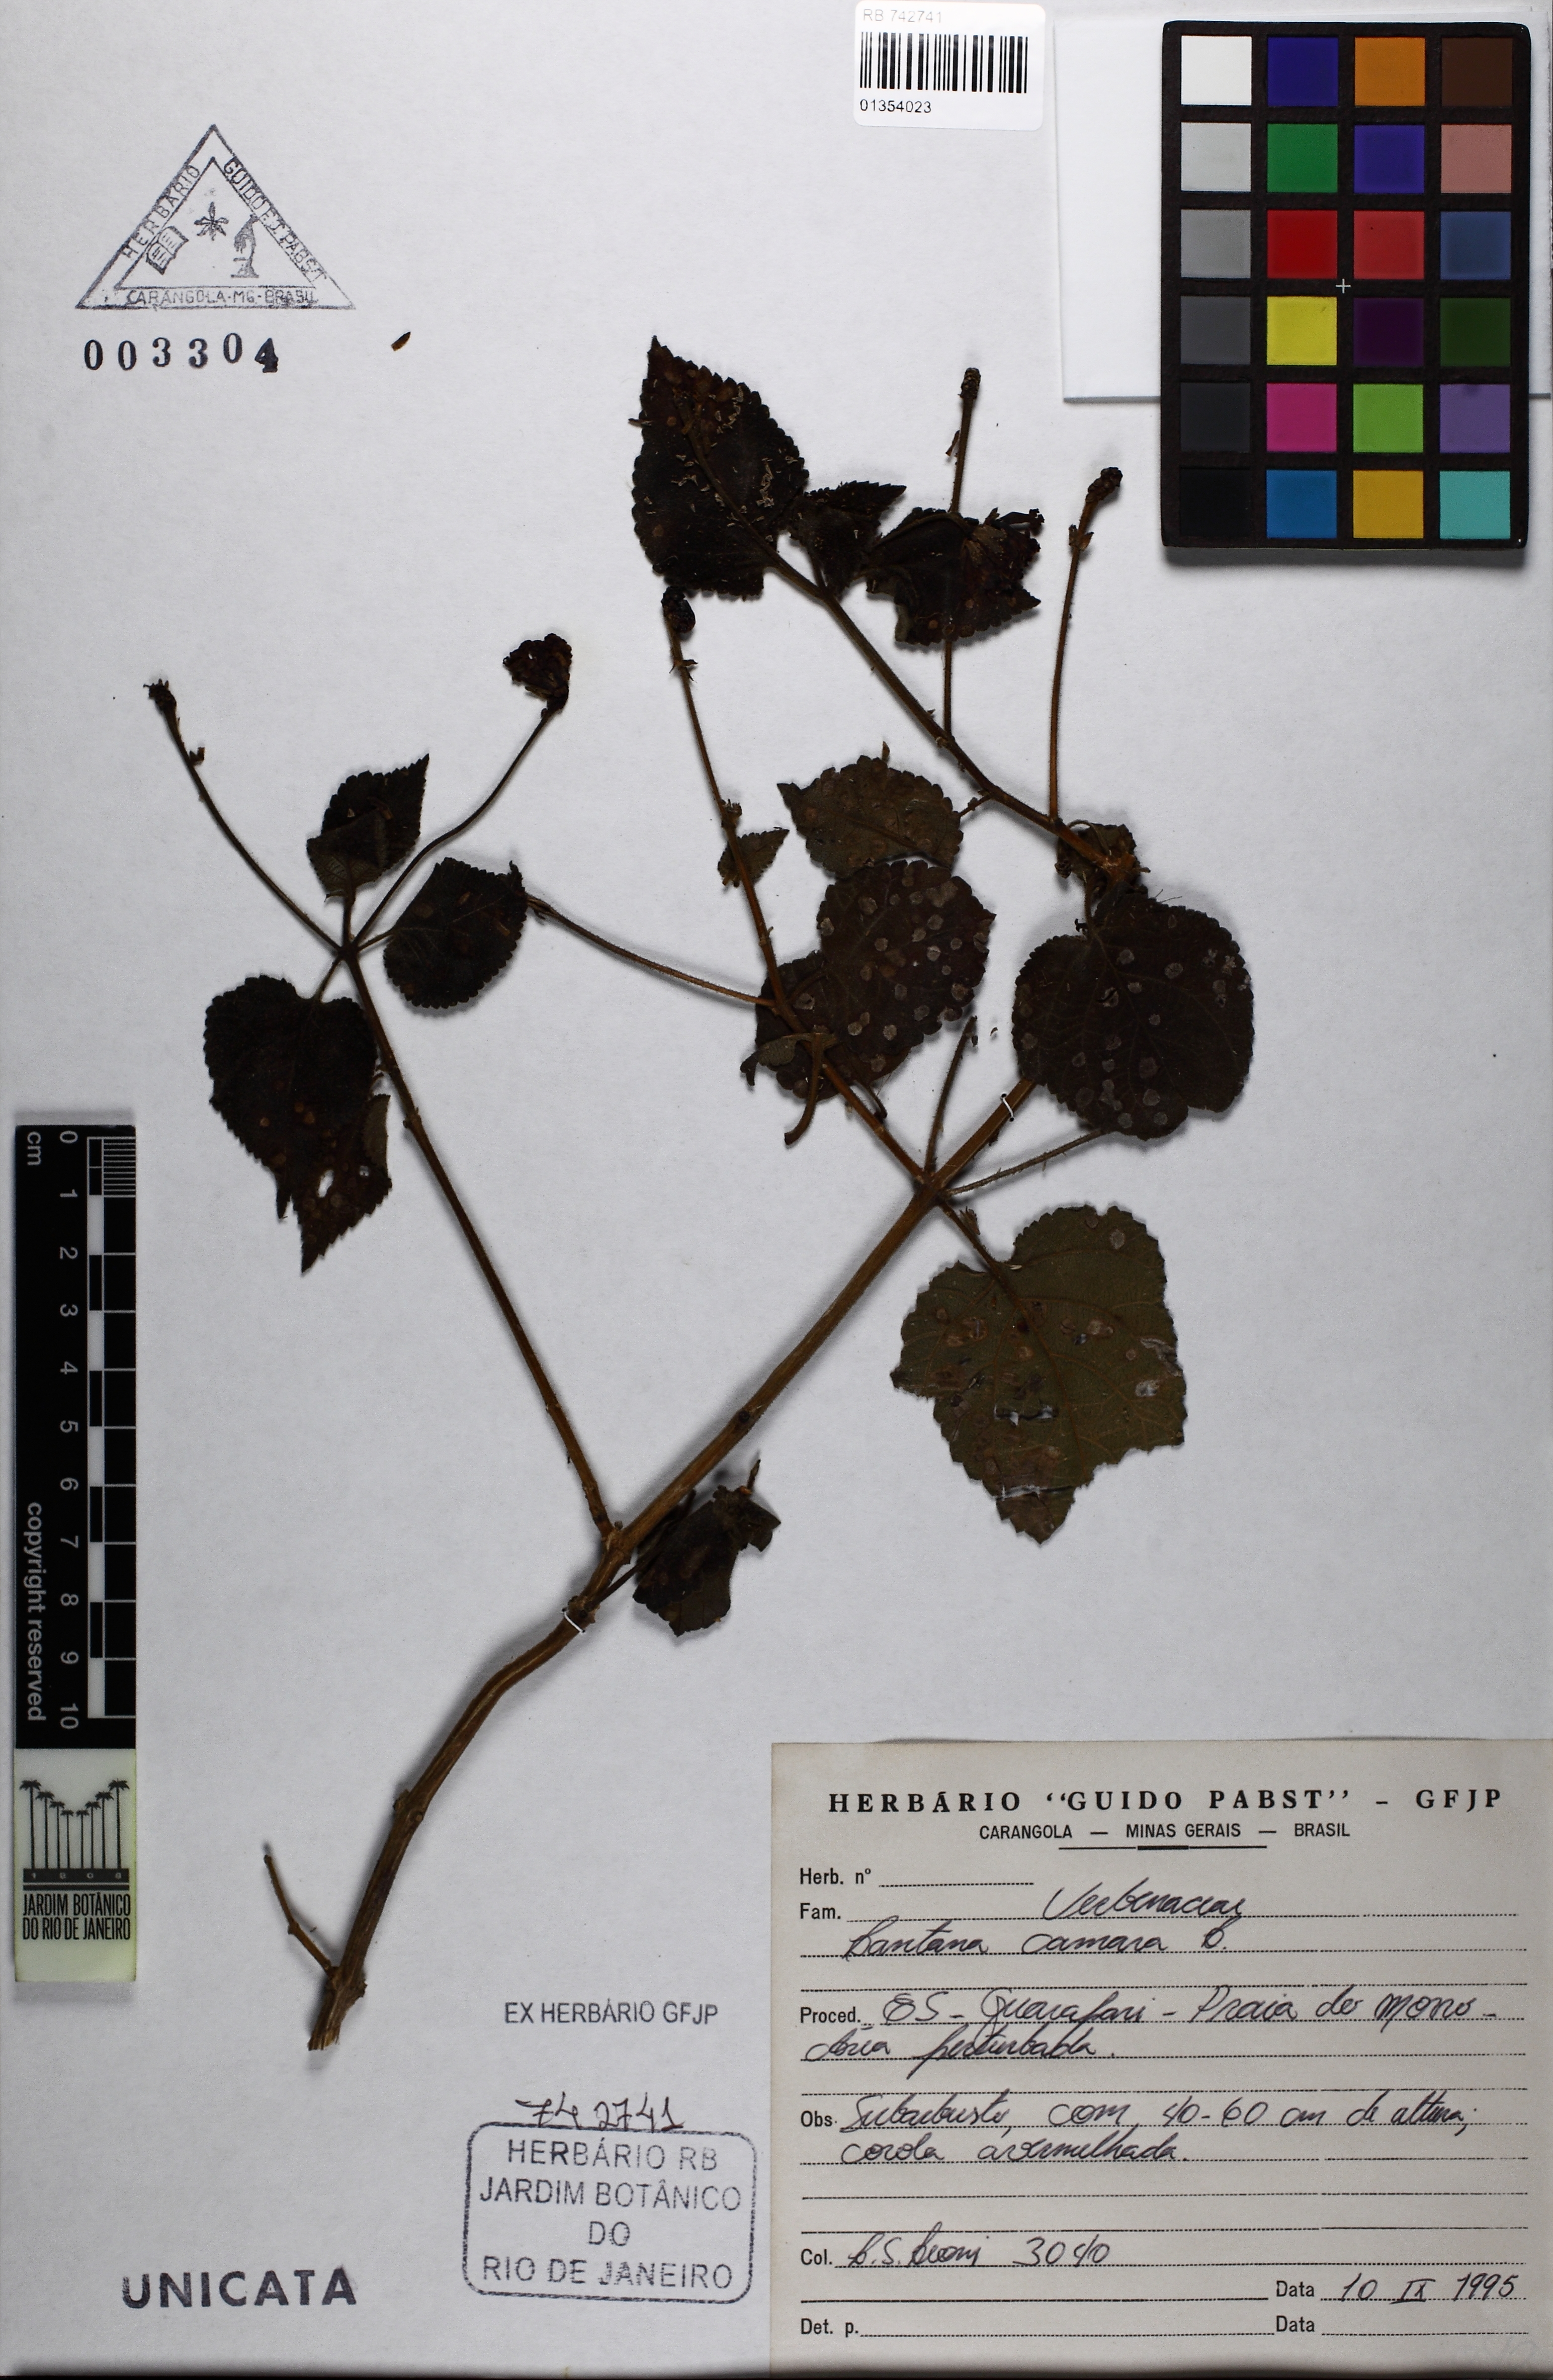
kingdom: Plantae
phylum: Tracheophyta
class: Magnoliopsida
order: Lamiales
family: Verbenaceae
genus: Lantana
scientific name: Lantana camara
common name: Lantana
